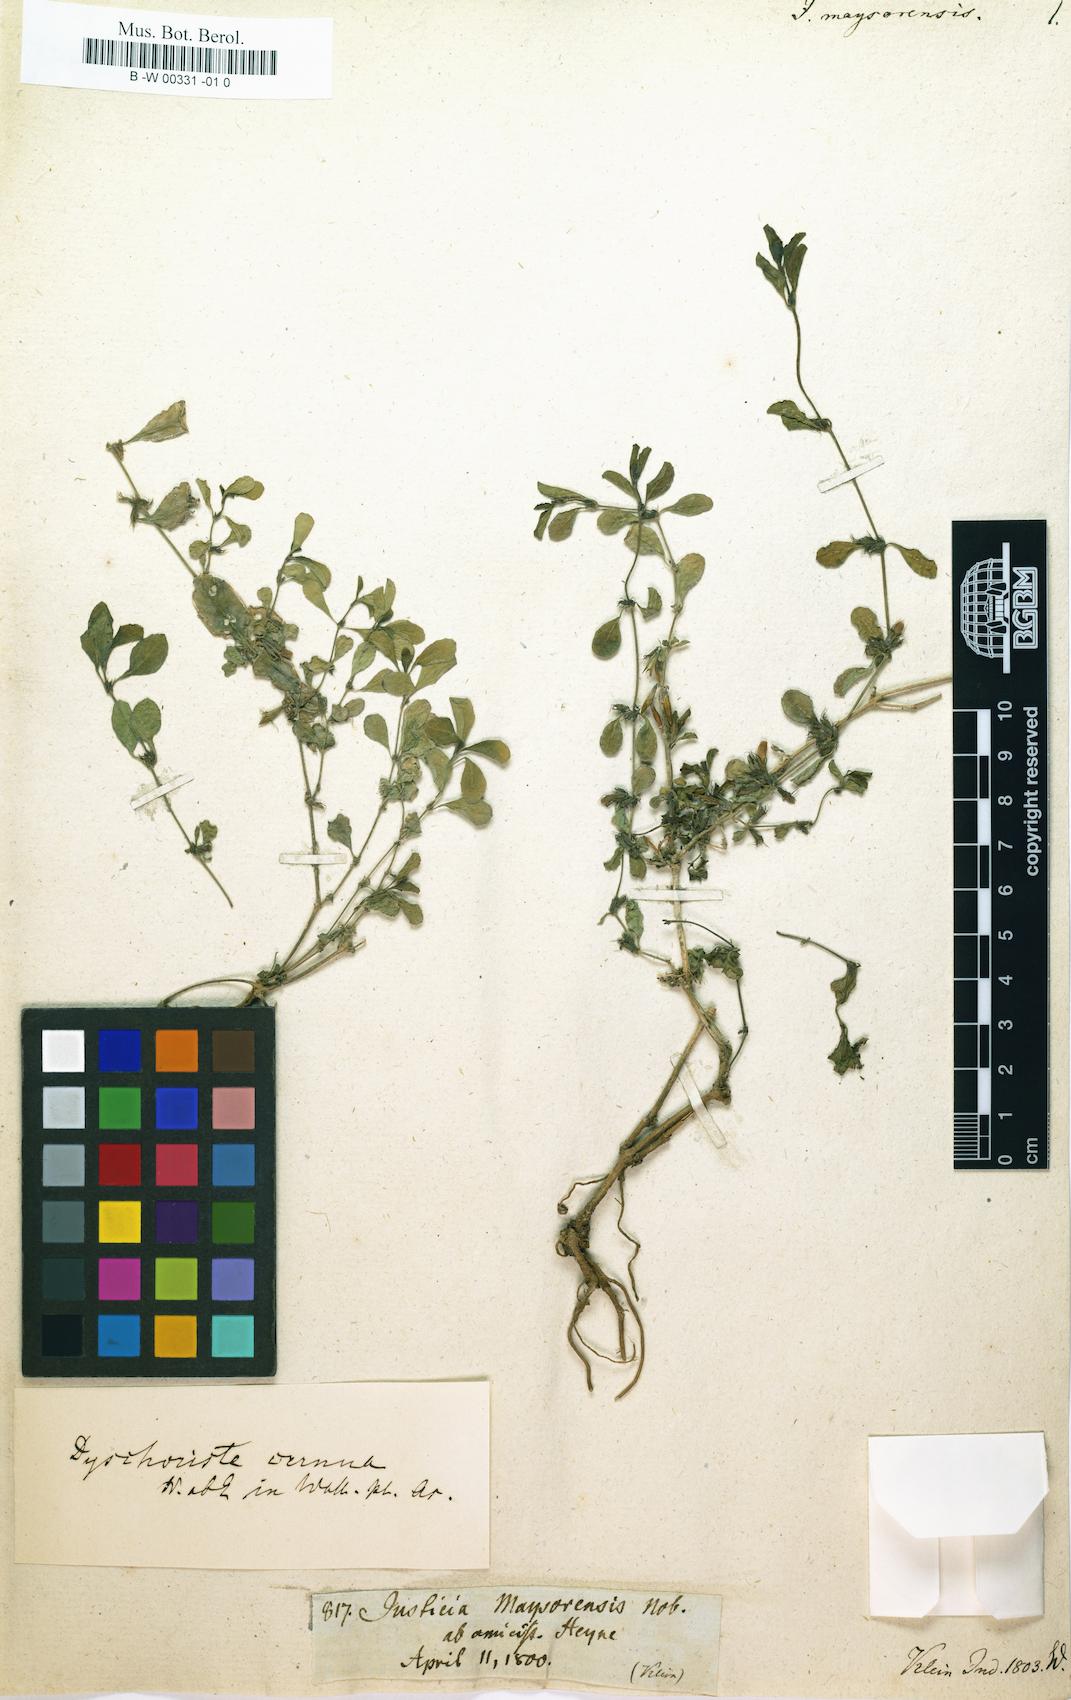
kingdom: Plantae
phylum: Tracheophyta
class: Magnoliopsida
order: Lamiales
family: Acanthaceae
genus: Hygrophila
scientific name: Hygrophila erecta
